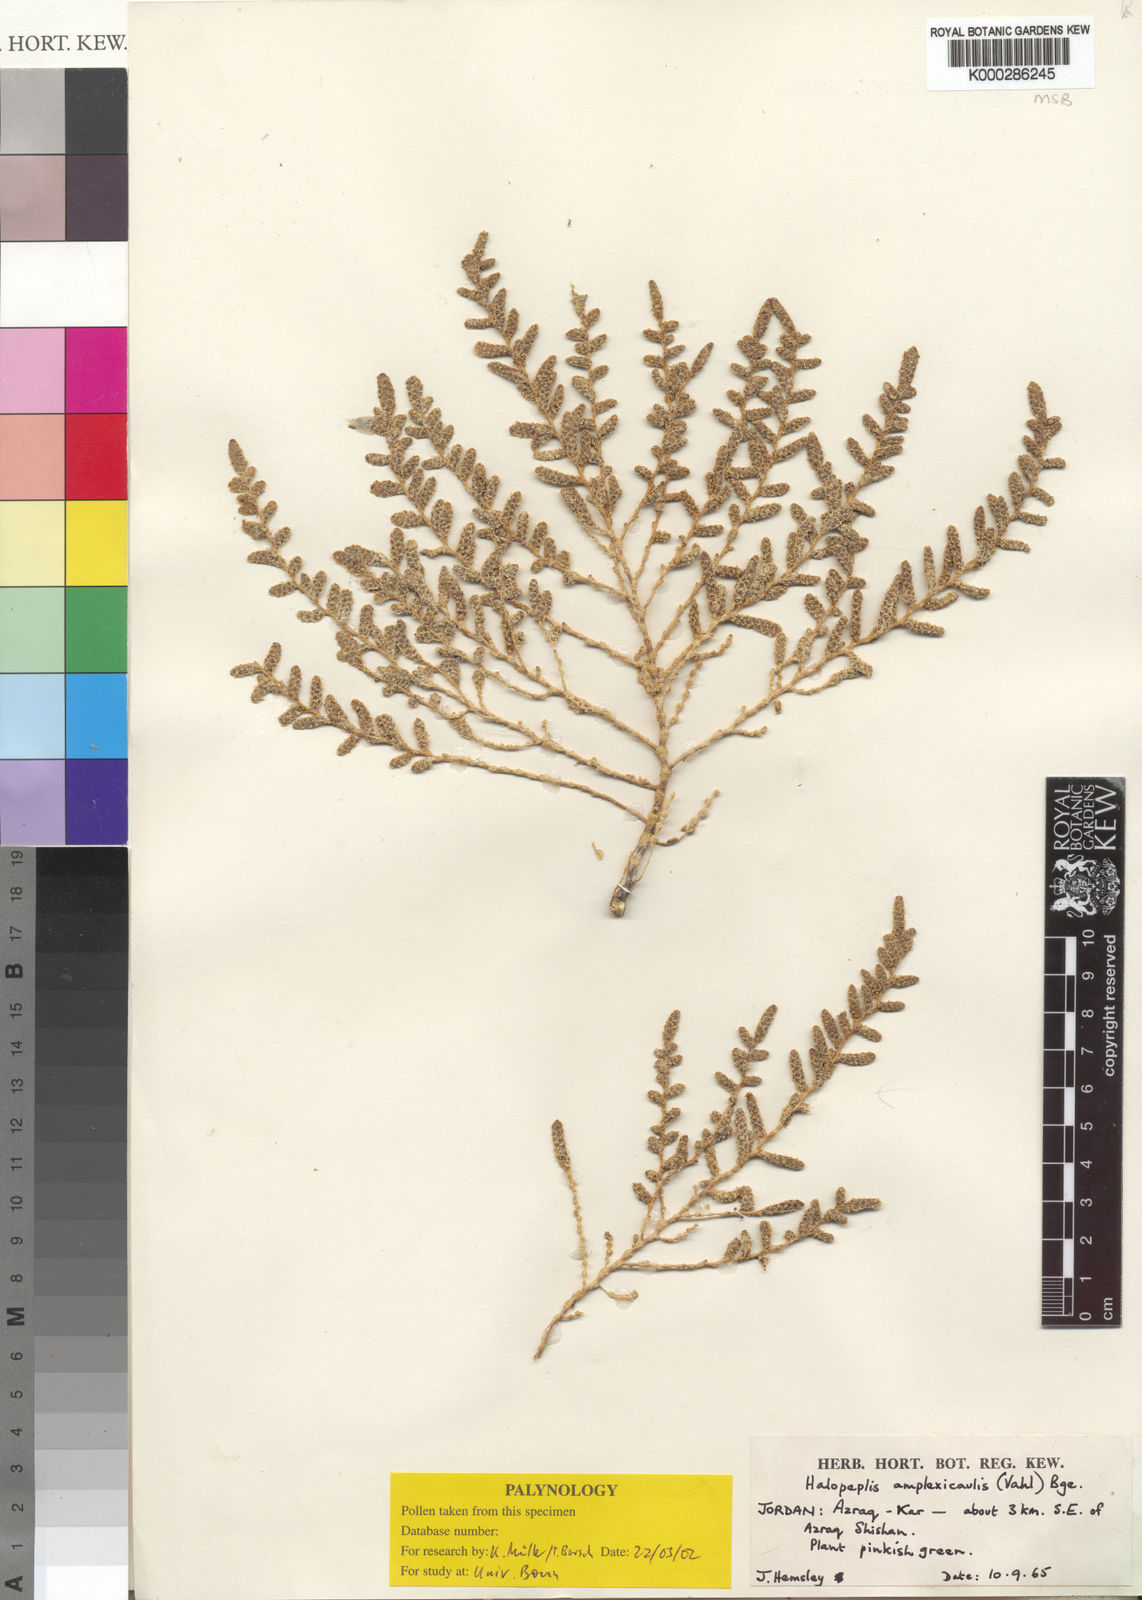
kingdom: Plantae
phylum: Tracheophyta
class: Magnoliopsida
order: Caryophyllales
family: Amaranthaceae
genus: Halopeplis
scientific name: Halopeplis amplexicaulis
